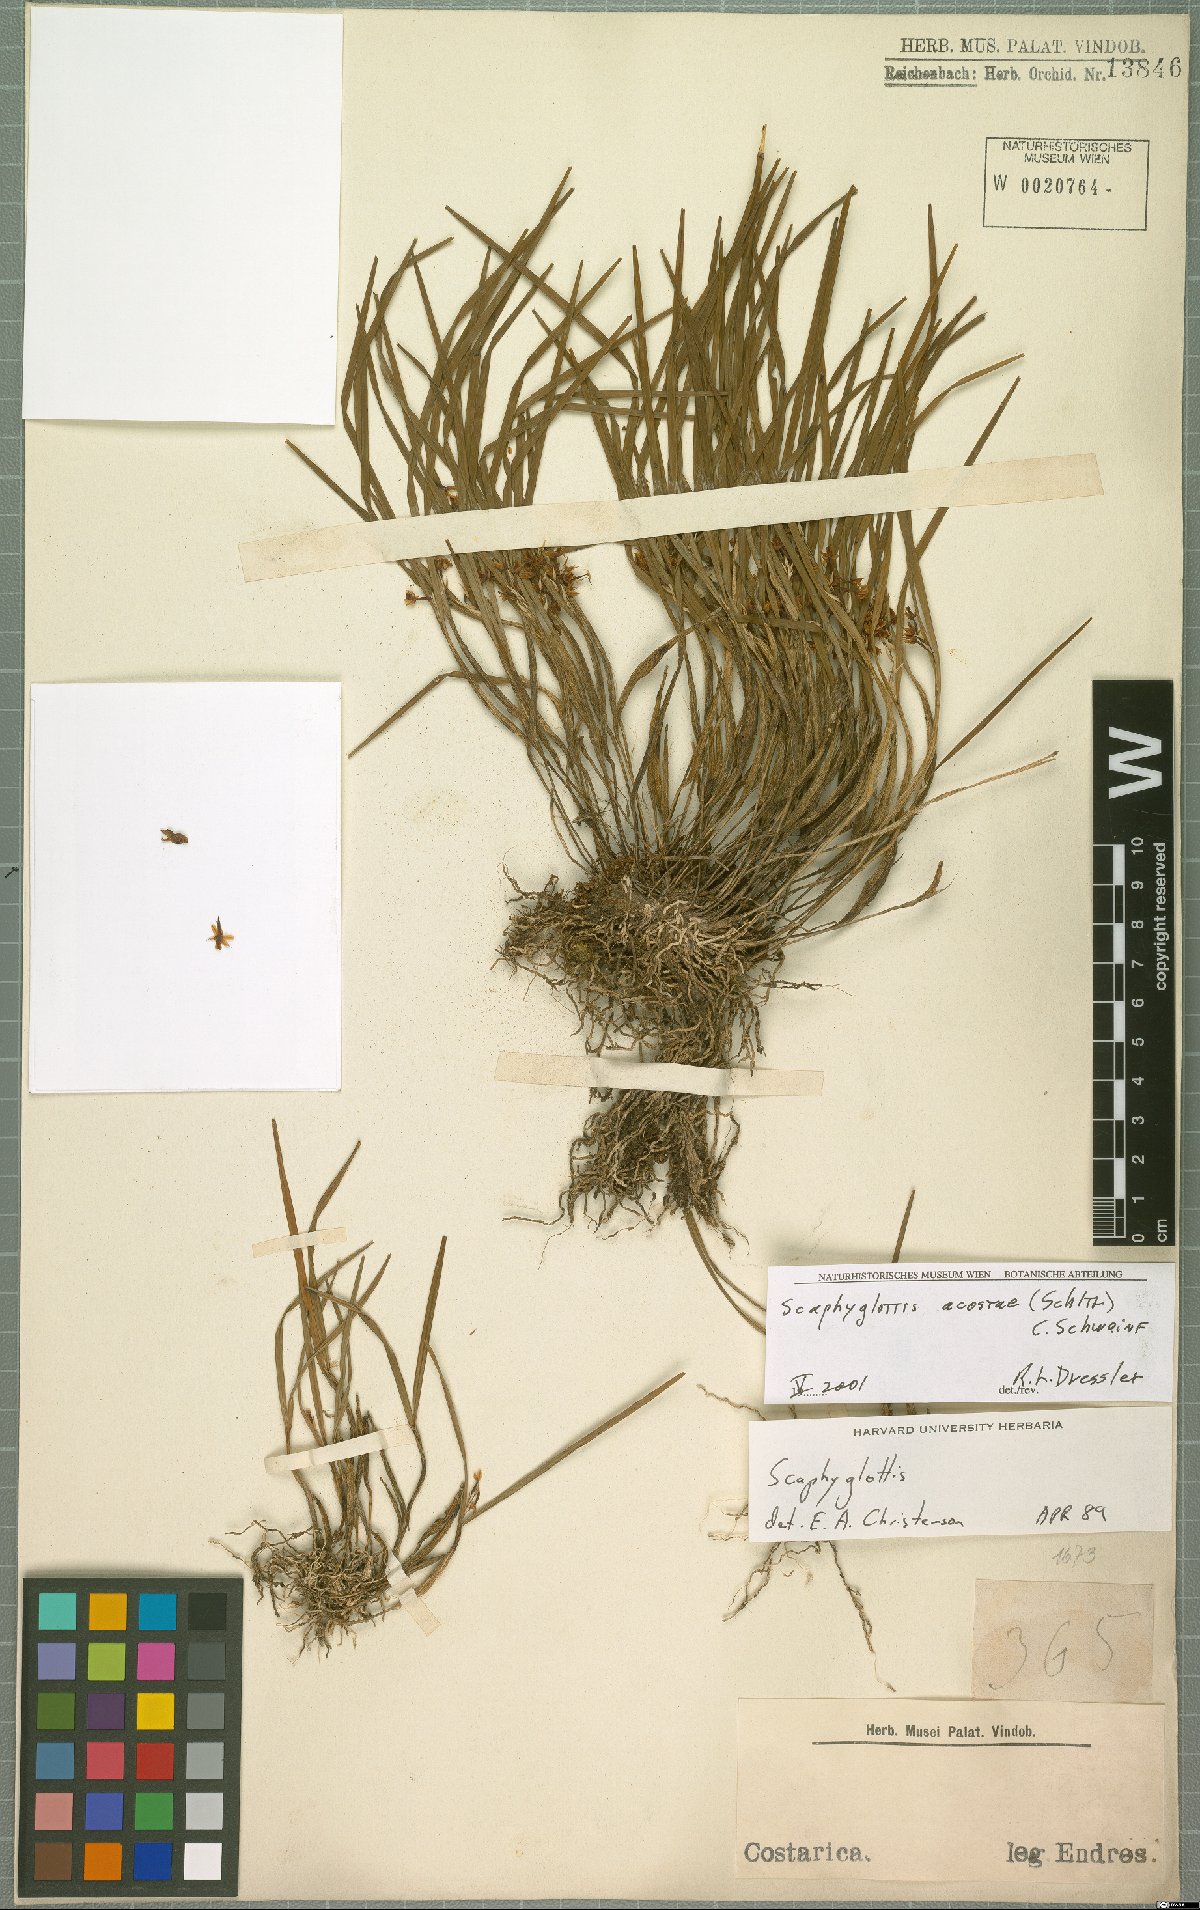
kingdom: Plantae
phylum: Tracheophyta
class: Liliopsida
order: Asparagales
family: Orchidaceae
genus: Scaphyglottis
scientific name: Scaphyglottis acostae
